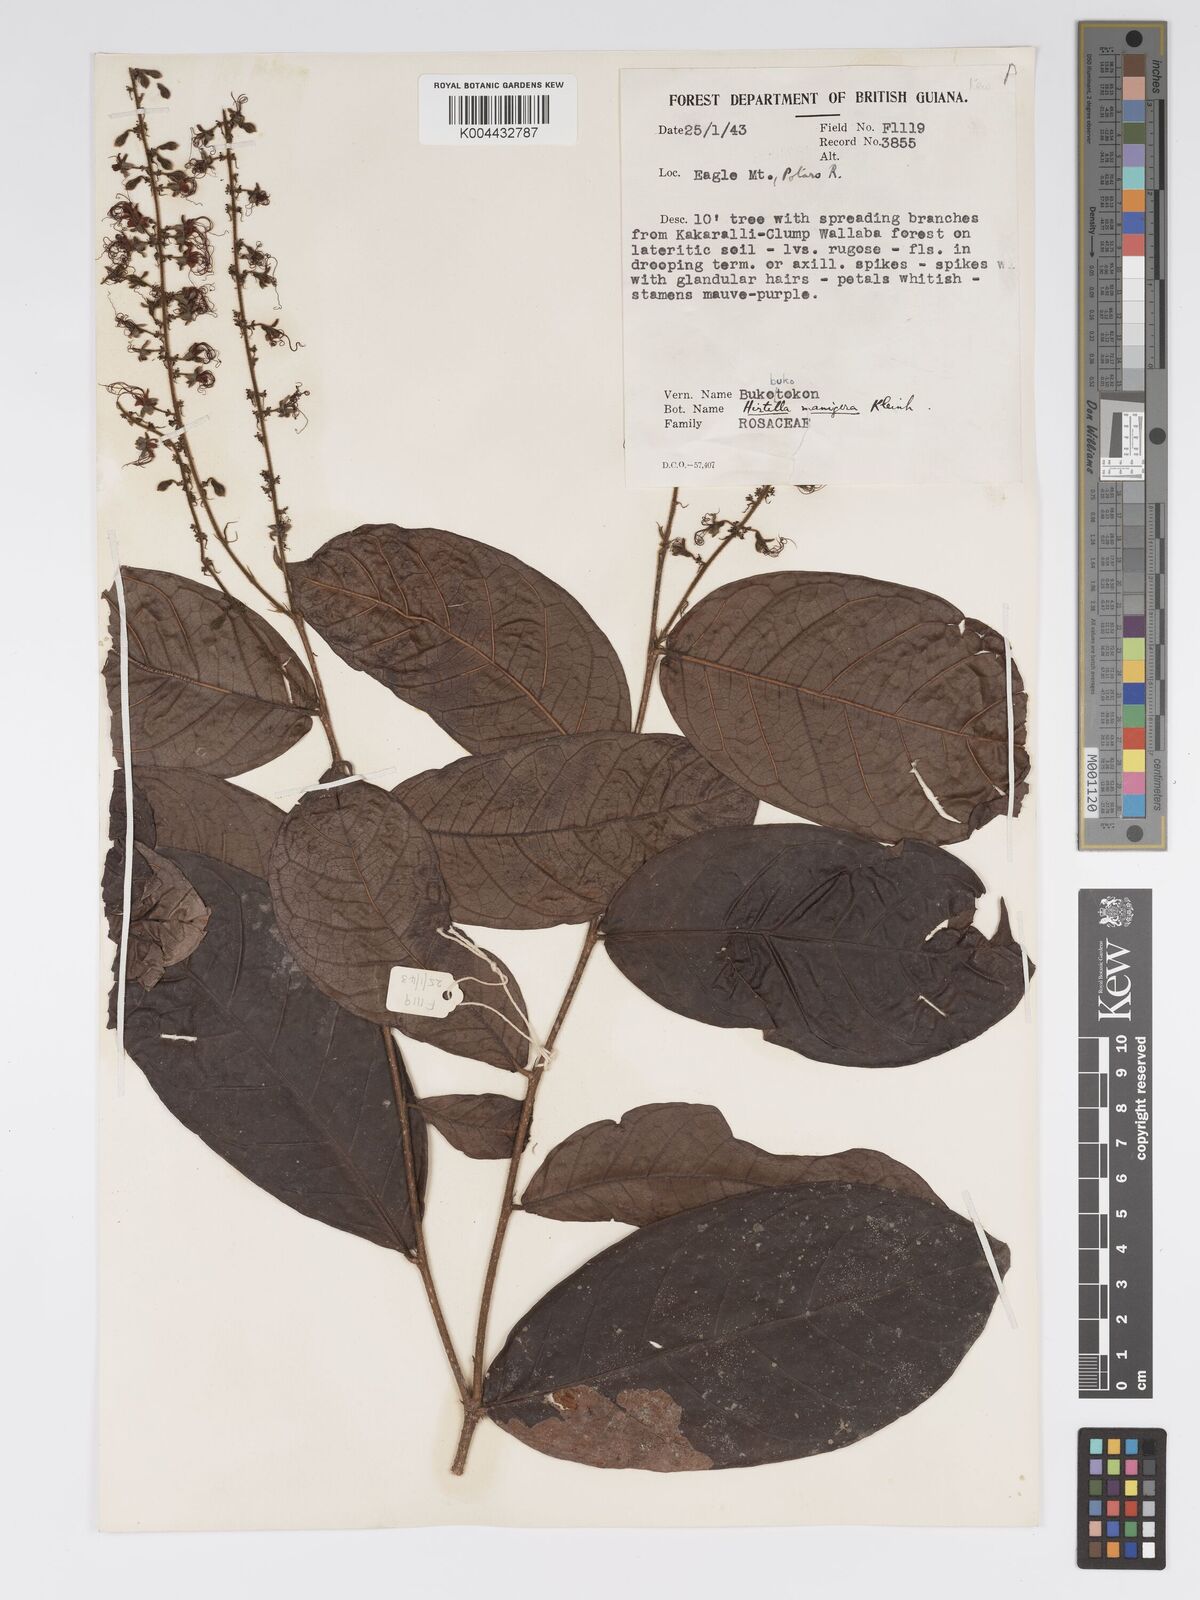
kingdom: Plantae
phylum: Tracheophyta
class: Magnoliopsida
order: Malpighiales
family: Chrysobalanaceae
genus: Hirtella
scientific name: Hirtella silicea
